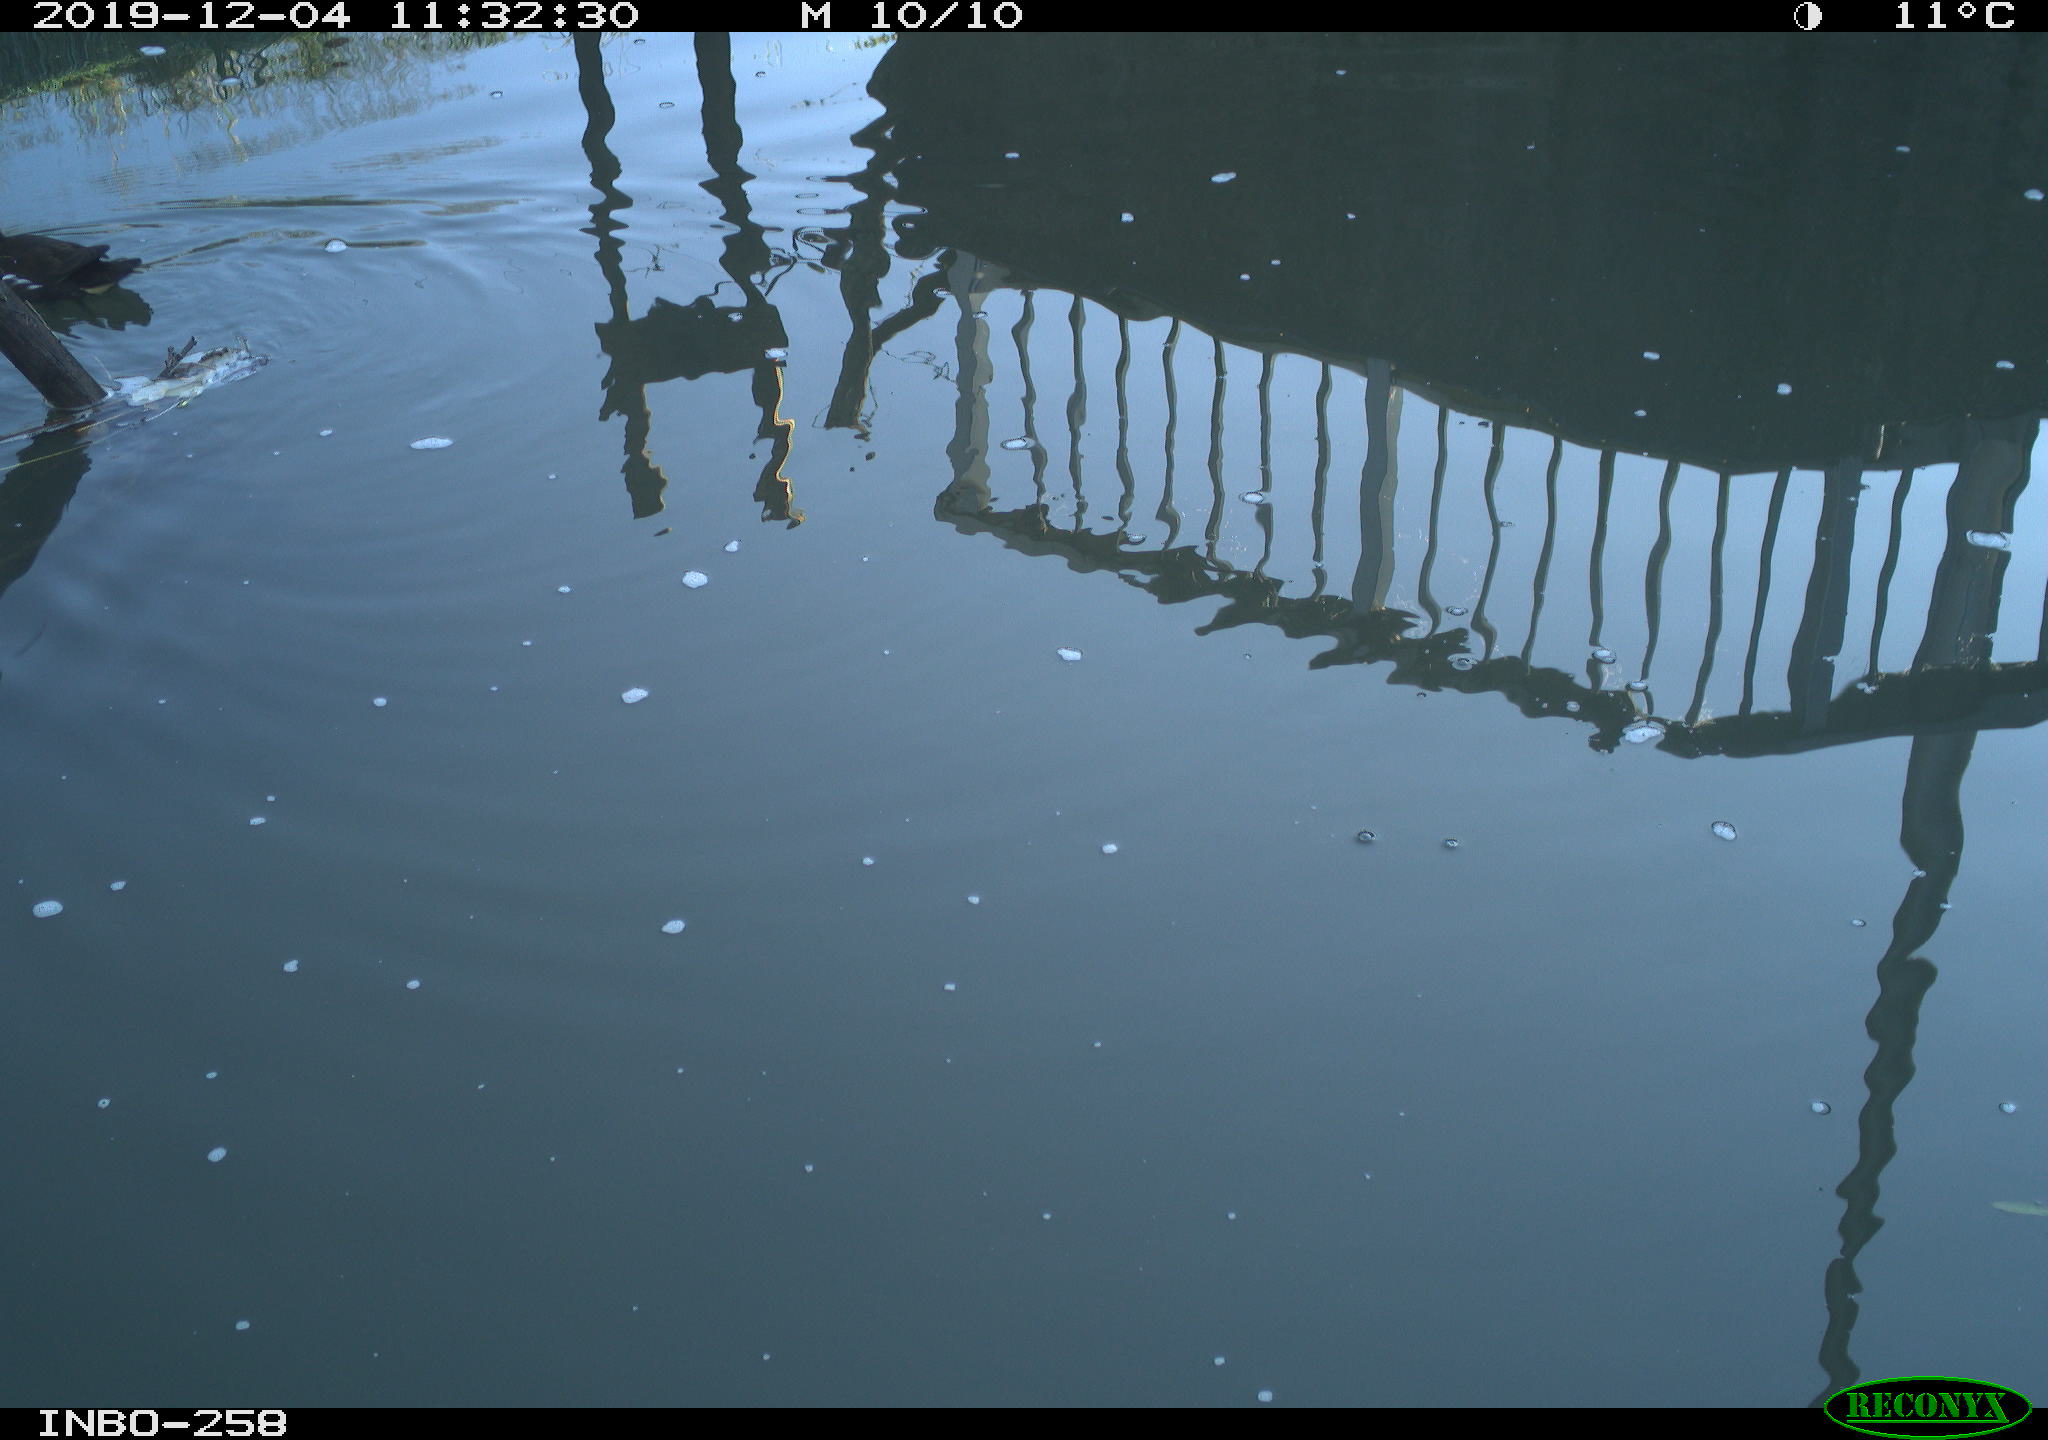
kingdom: Animalia
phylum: Chordata
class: Aves
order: Gruiformes
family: Rallidae
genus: Gallinula
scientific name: Gallinula chloropus
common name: Common moorhen
